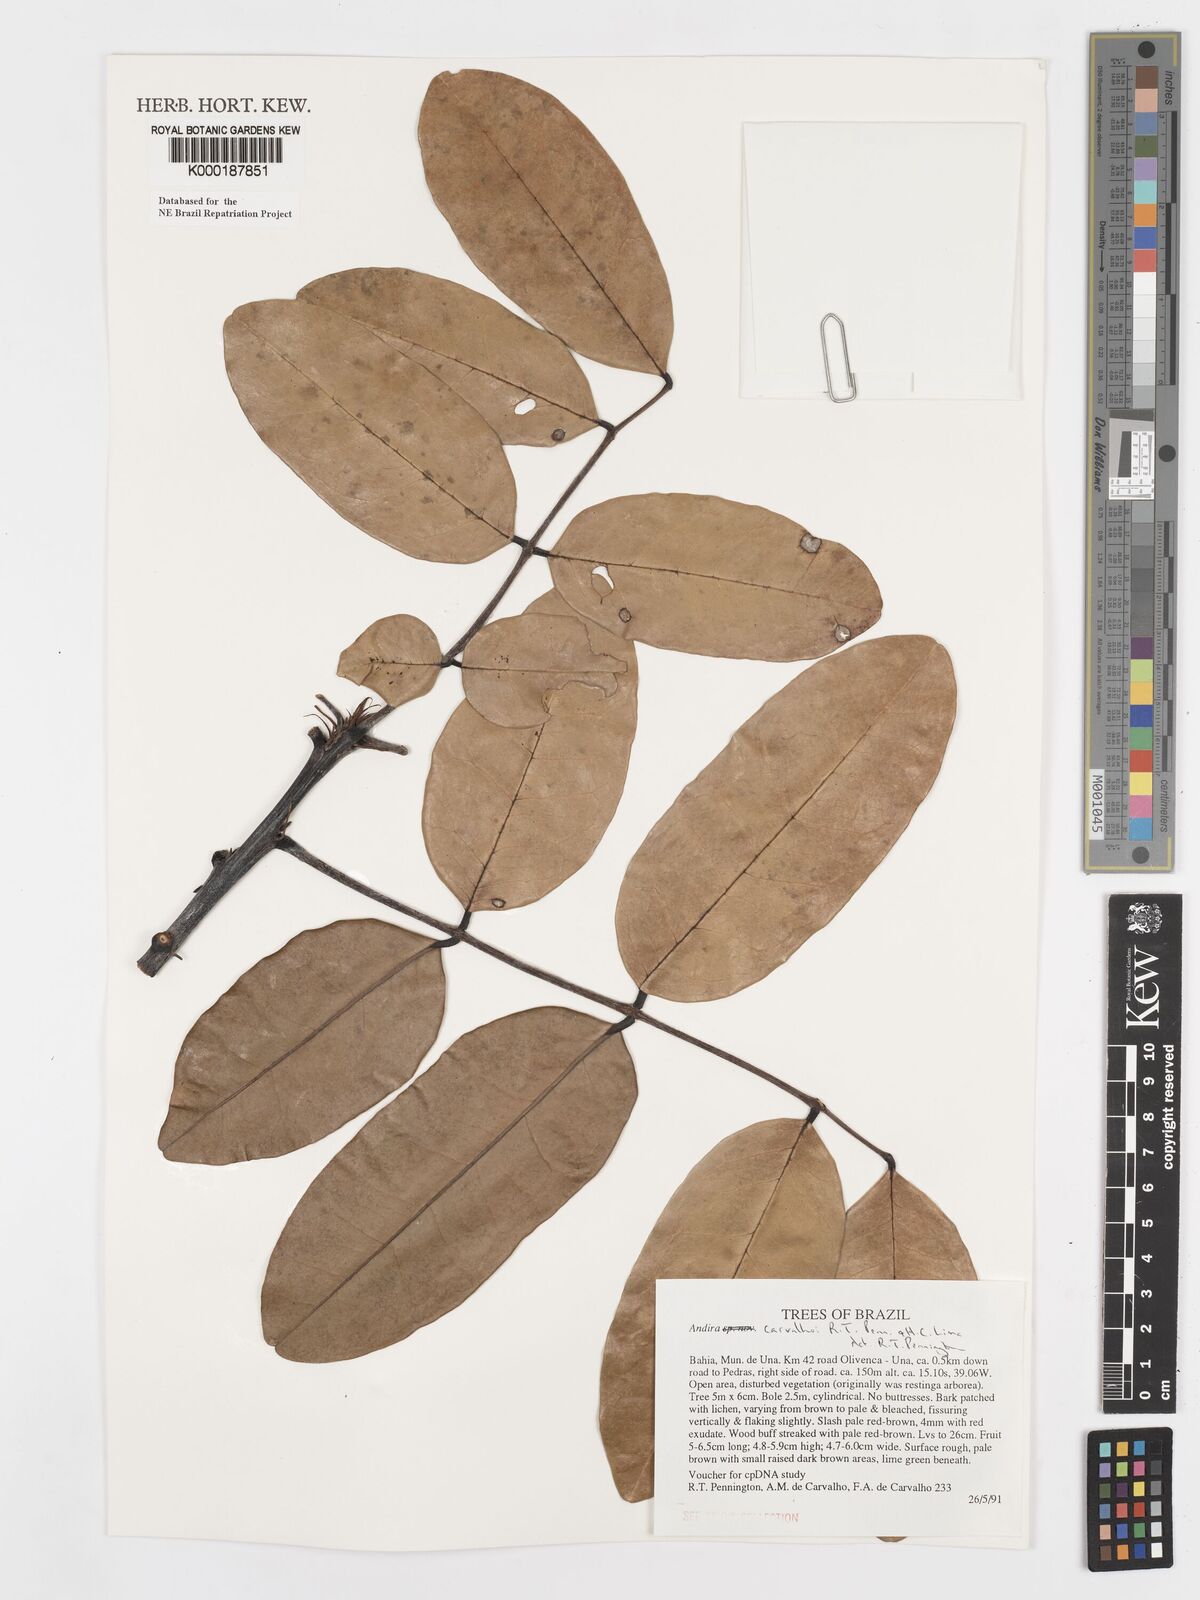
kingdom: Plantae
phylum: Tracheophyta
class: Magnoliopsida
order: Fabales
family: Fabaceae
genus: Andira
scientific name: Andira carvalhoi
